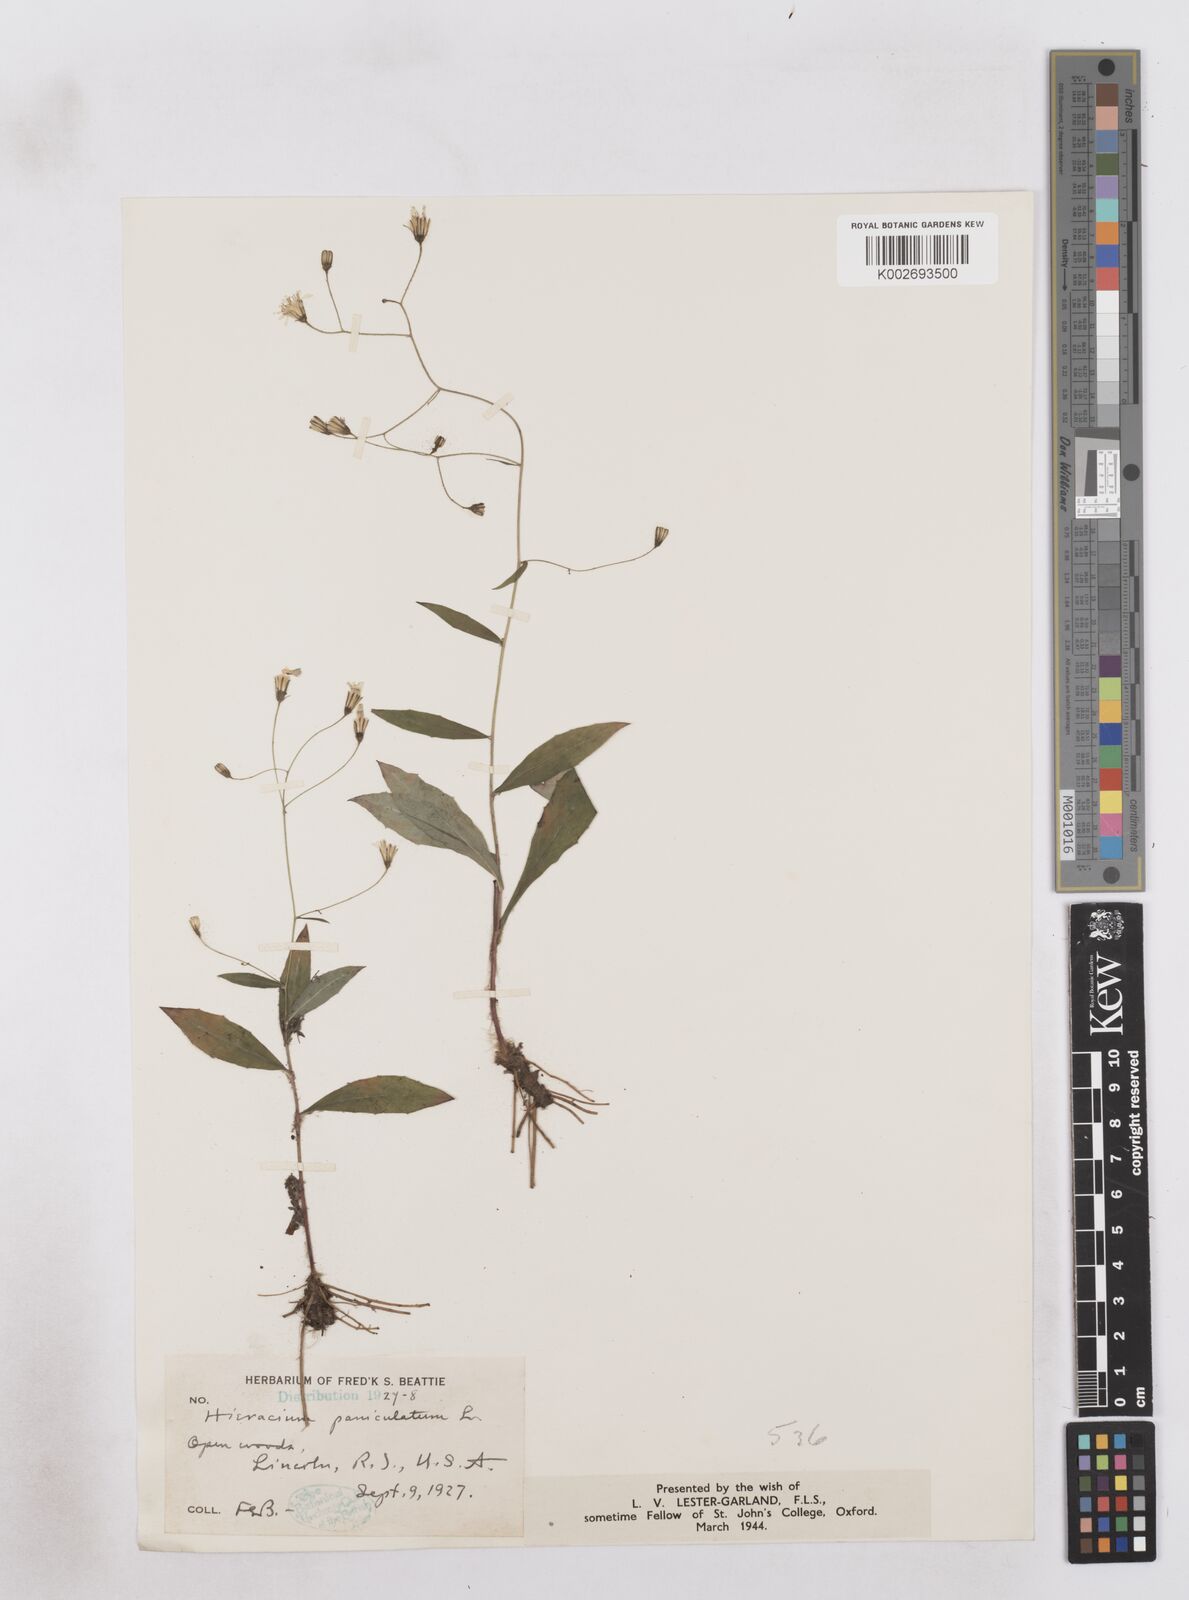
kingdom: Plantae
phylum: Tracheophyta
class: Magnoliopsida
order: Asterales
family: Asteraceae
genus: Hieracium
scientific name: Hieracium paniculatum
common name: Allegheny hawkweed
